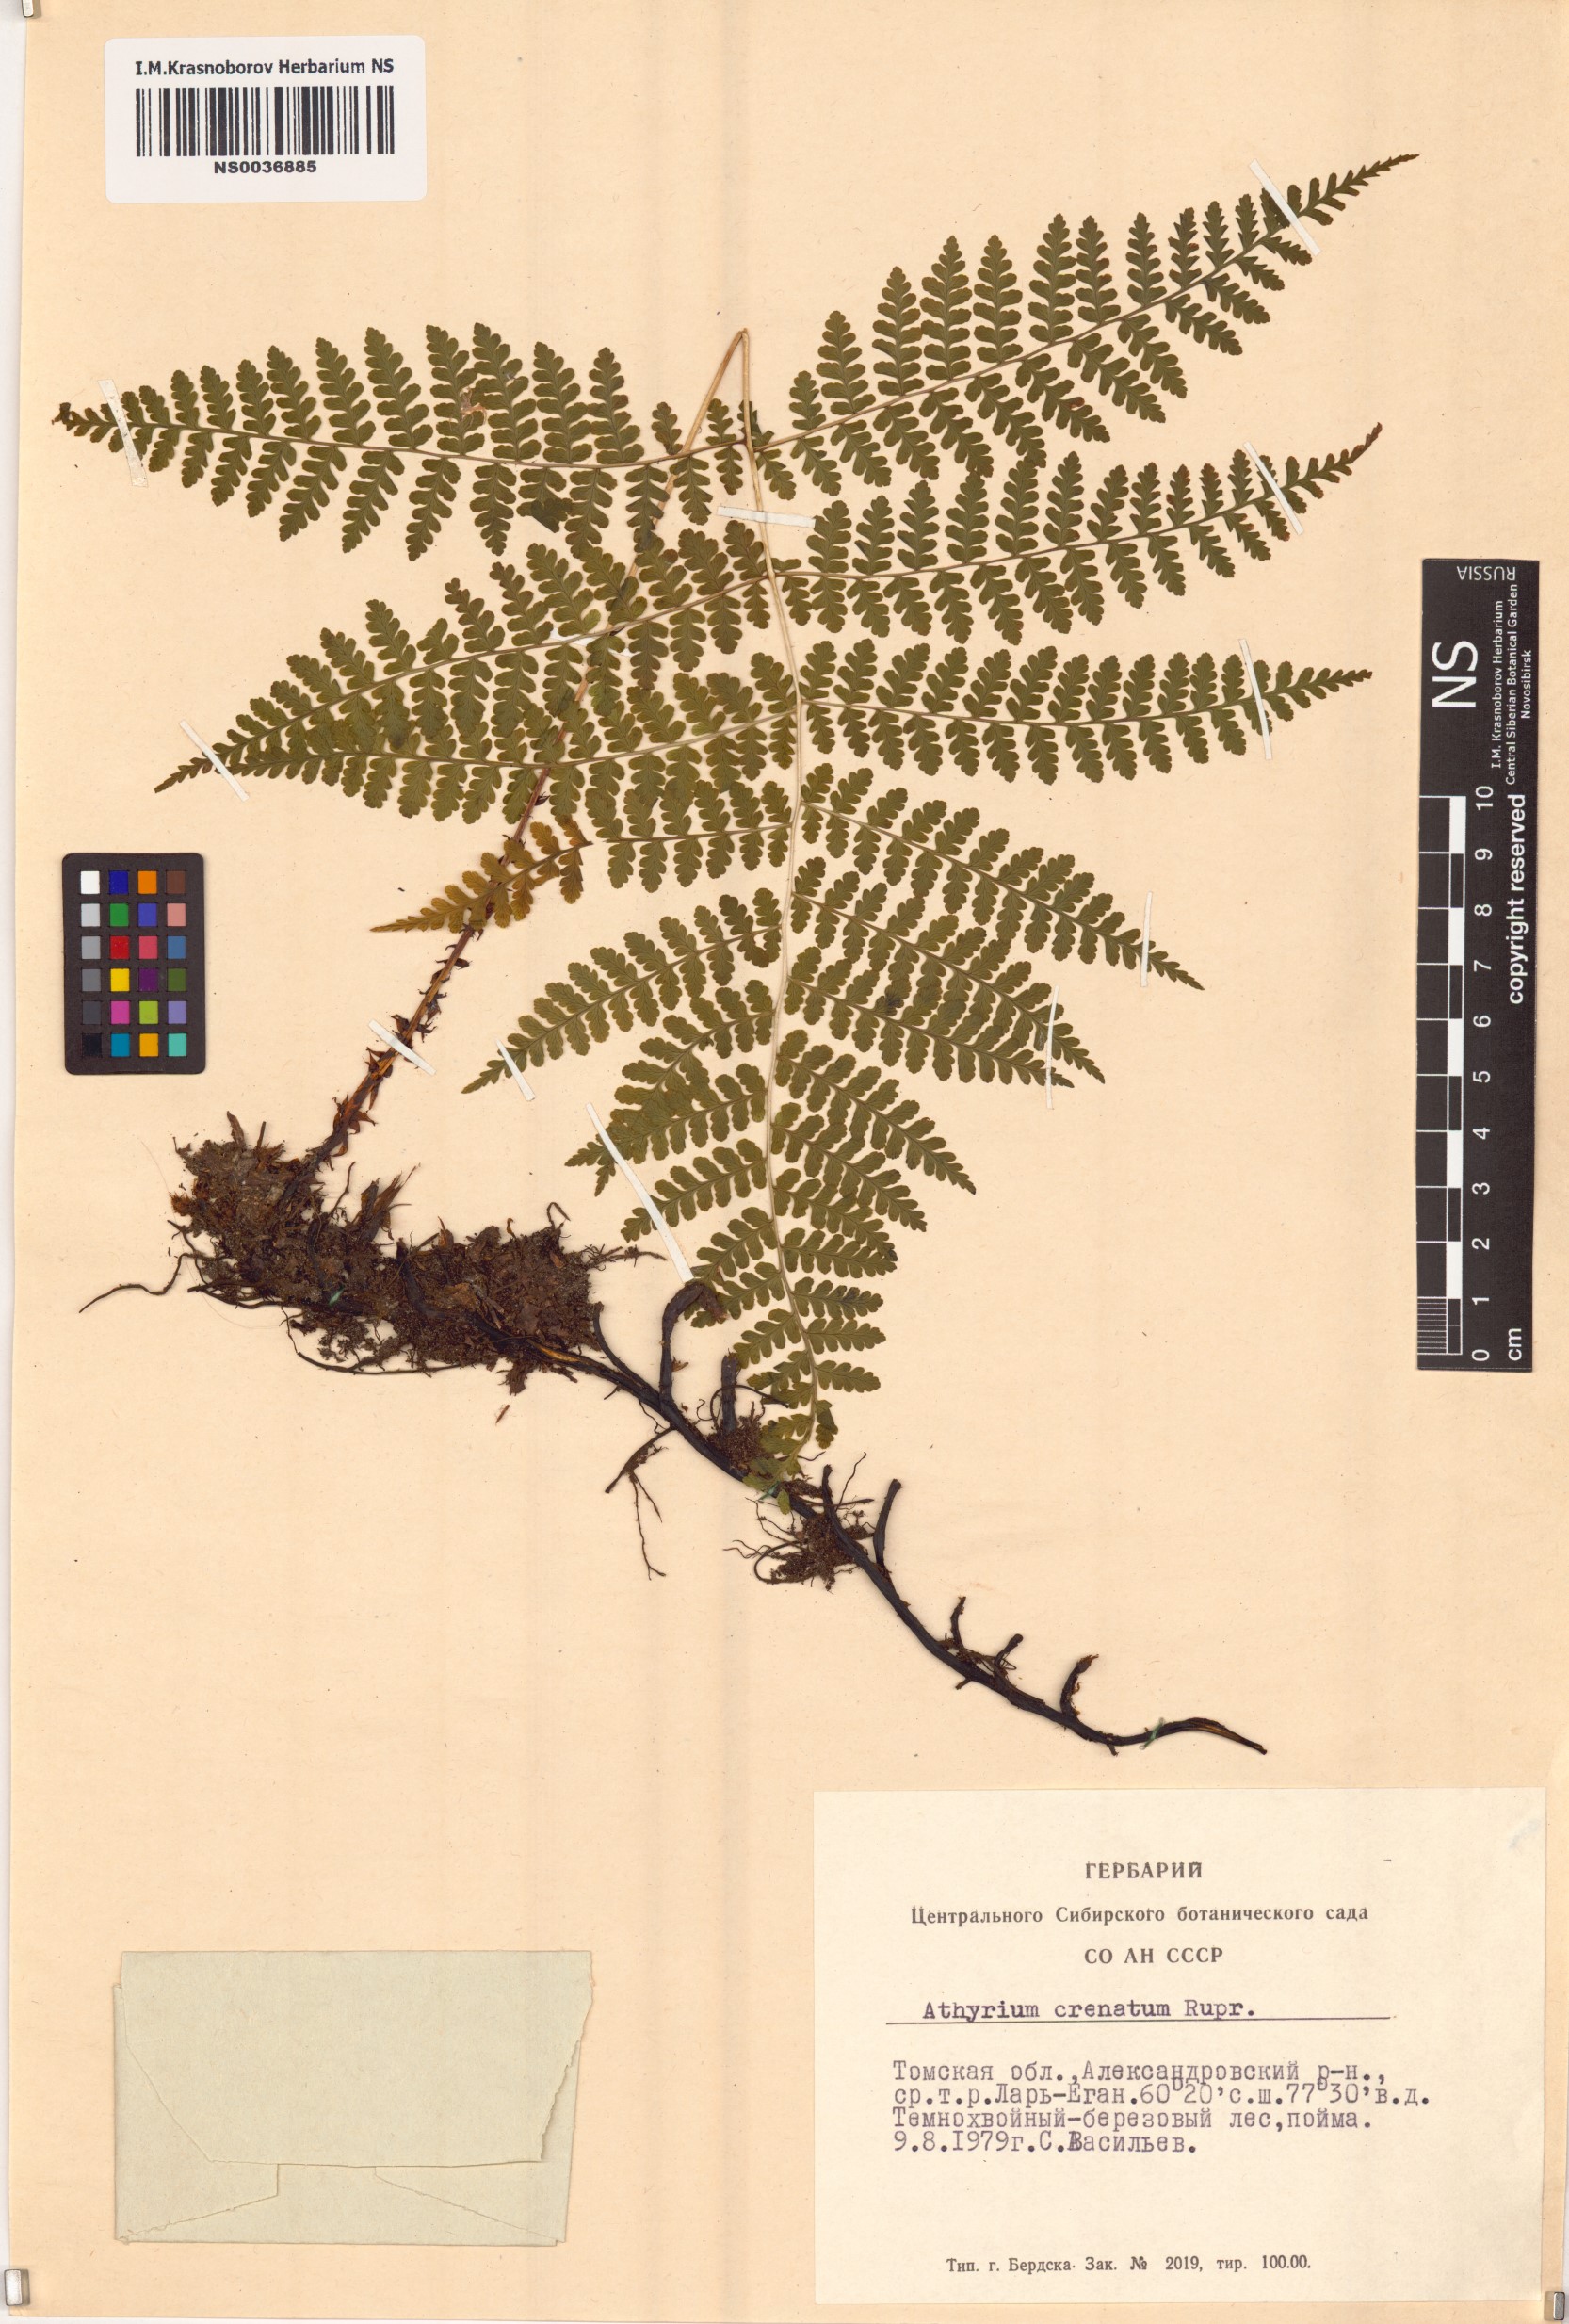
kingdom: Plantae
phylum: Tracheophyta
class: Polypodiopsida
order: Polypodiales
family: Athyriaceae
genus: Diplazium
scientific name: Diplazium sibiricum
